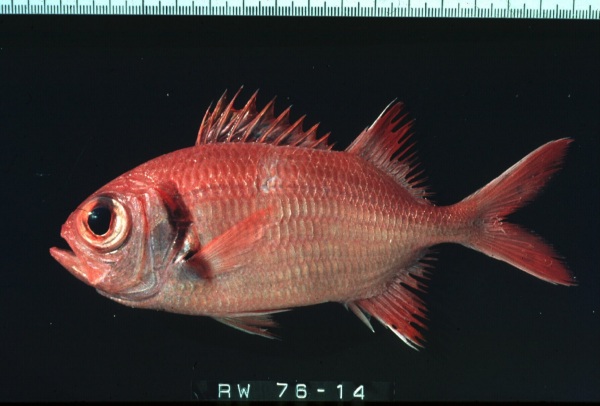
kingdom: Animalia
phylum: Chordata
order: Beryciformes
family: Holocentridae
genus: Myripristis
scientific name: Myripristis kuntee
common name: Epaulette soldierfish
